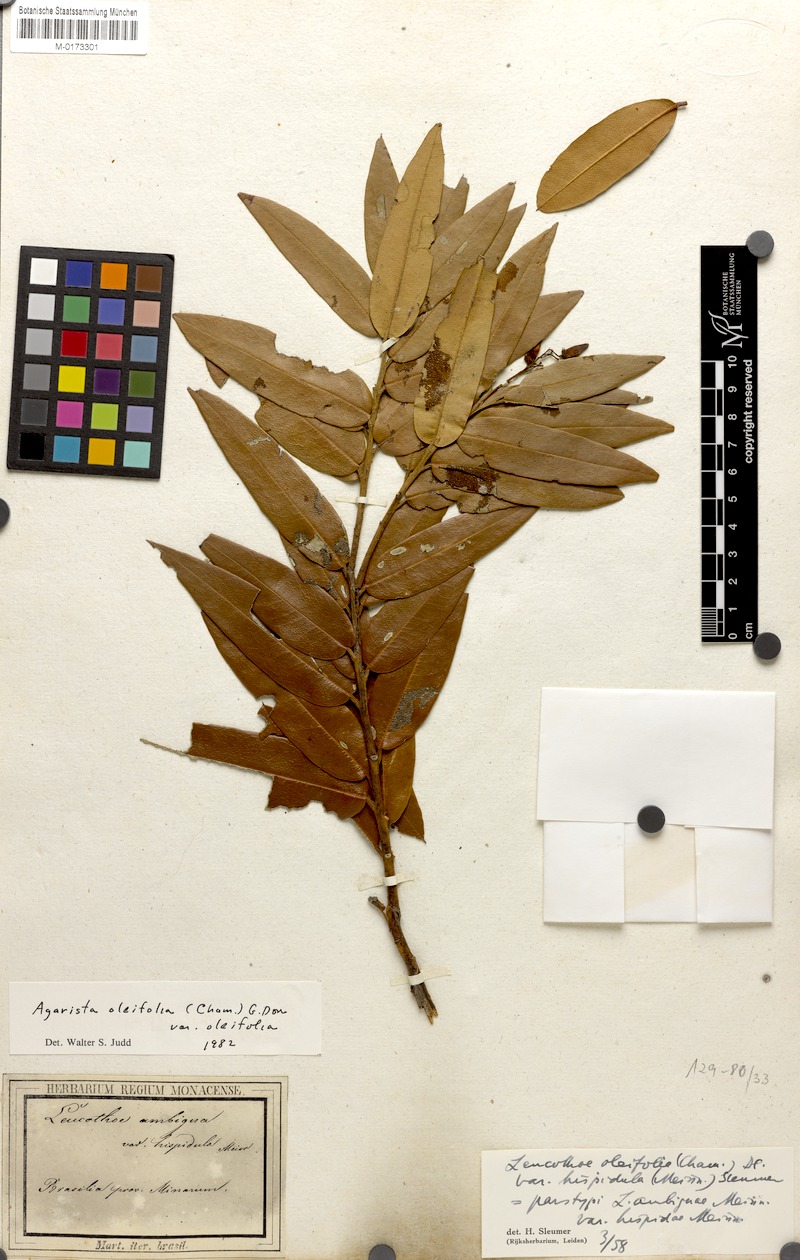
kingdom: Plantae
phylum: Tracheophyta
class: Magnoliopsida
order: Ericales
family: Ericaceae
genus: Agarista
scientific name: Agarista oleifolia
